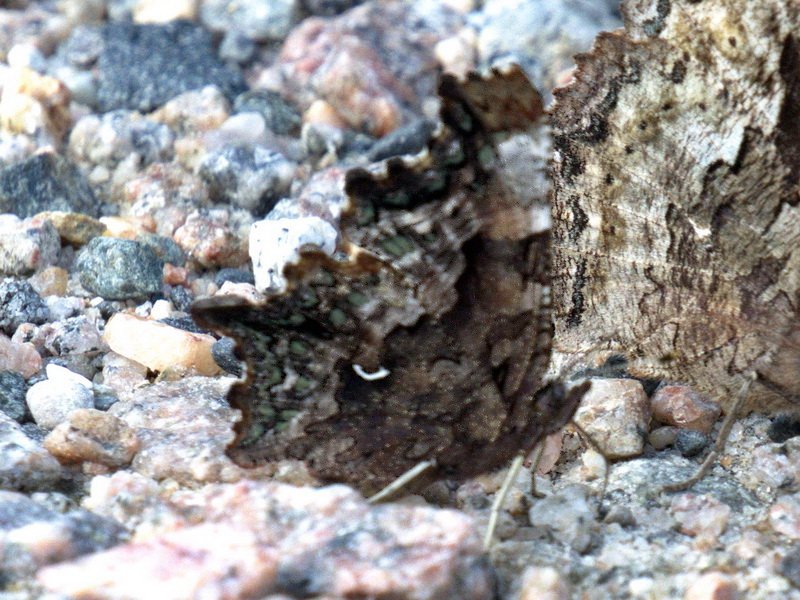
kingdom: Animalia
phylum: Arthropoda
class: Insecta
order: Lepidoptera
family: Nymphalidae
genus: Polygonia
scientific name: Polygonia faunus
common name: Green Comma
